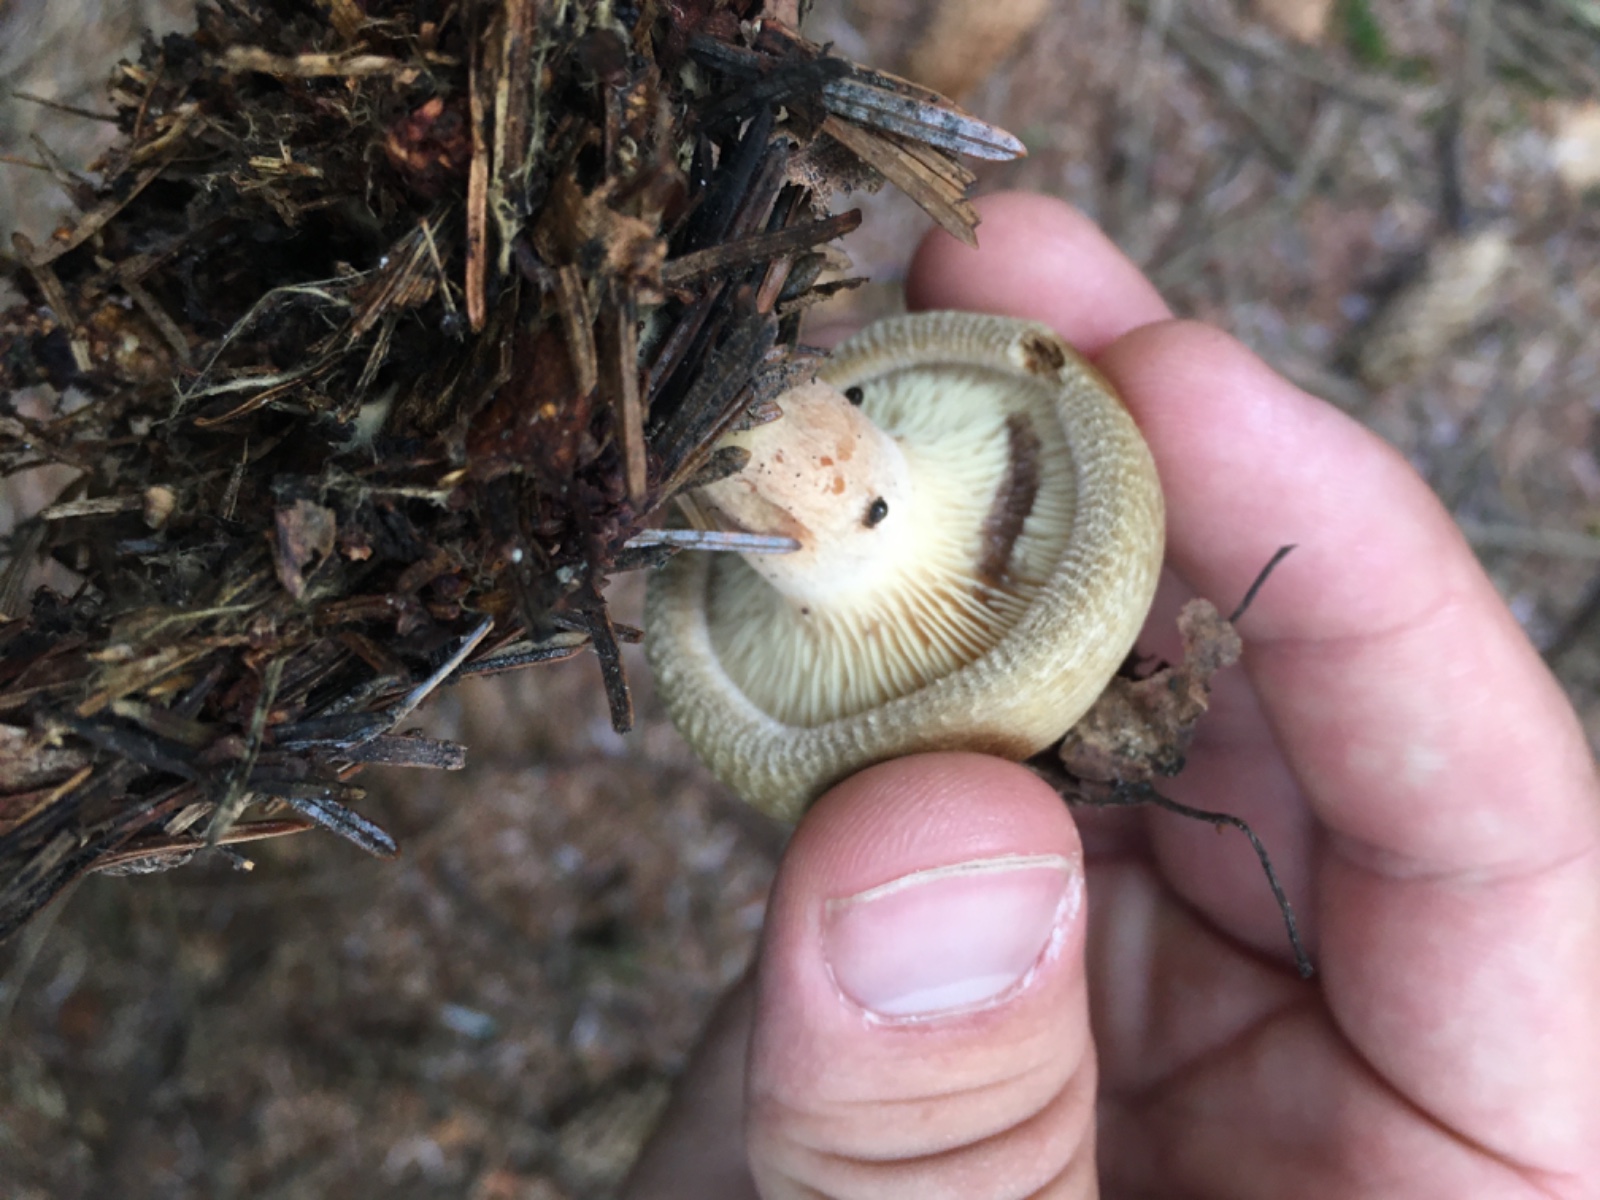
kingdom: Fungi
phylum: Basidiomycota
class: Agaricomycetes
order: Boletales
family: Paxillaceae
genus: Paxillus
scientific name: Paxillus involutus
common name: almindelig netbladhat
